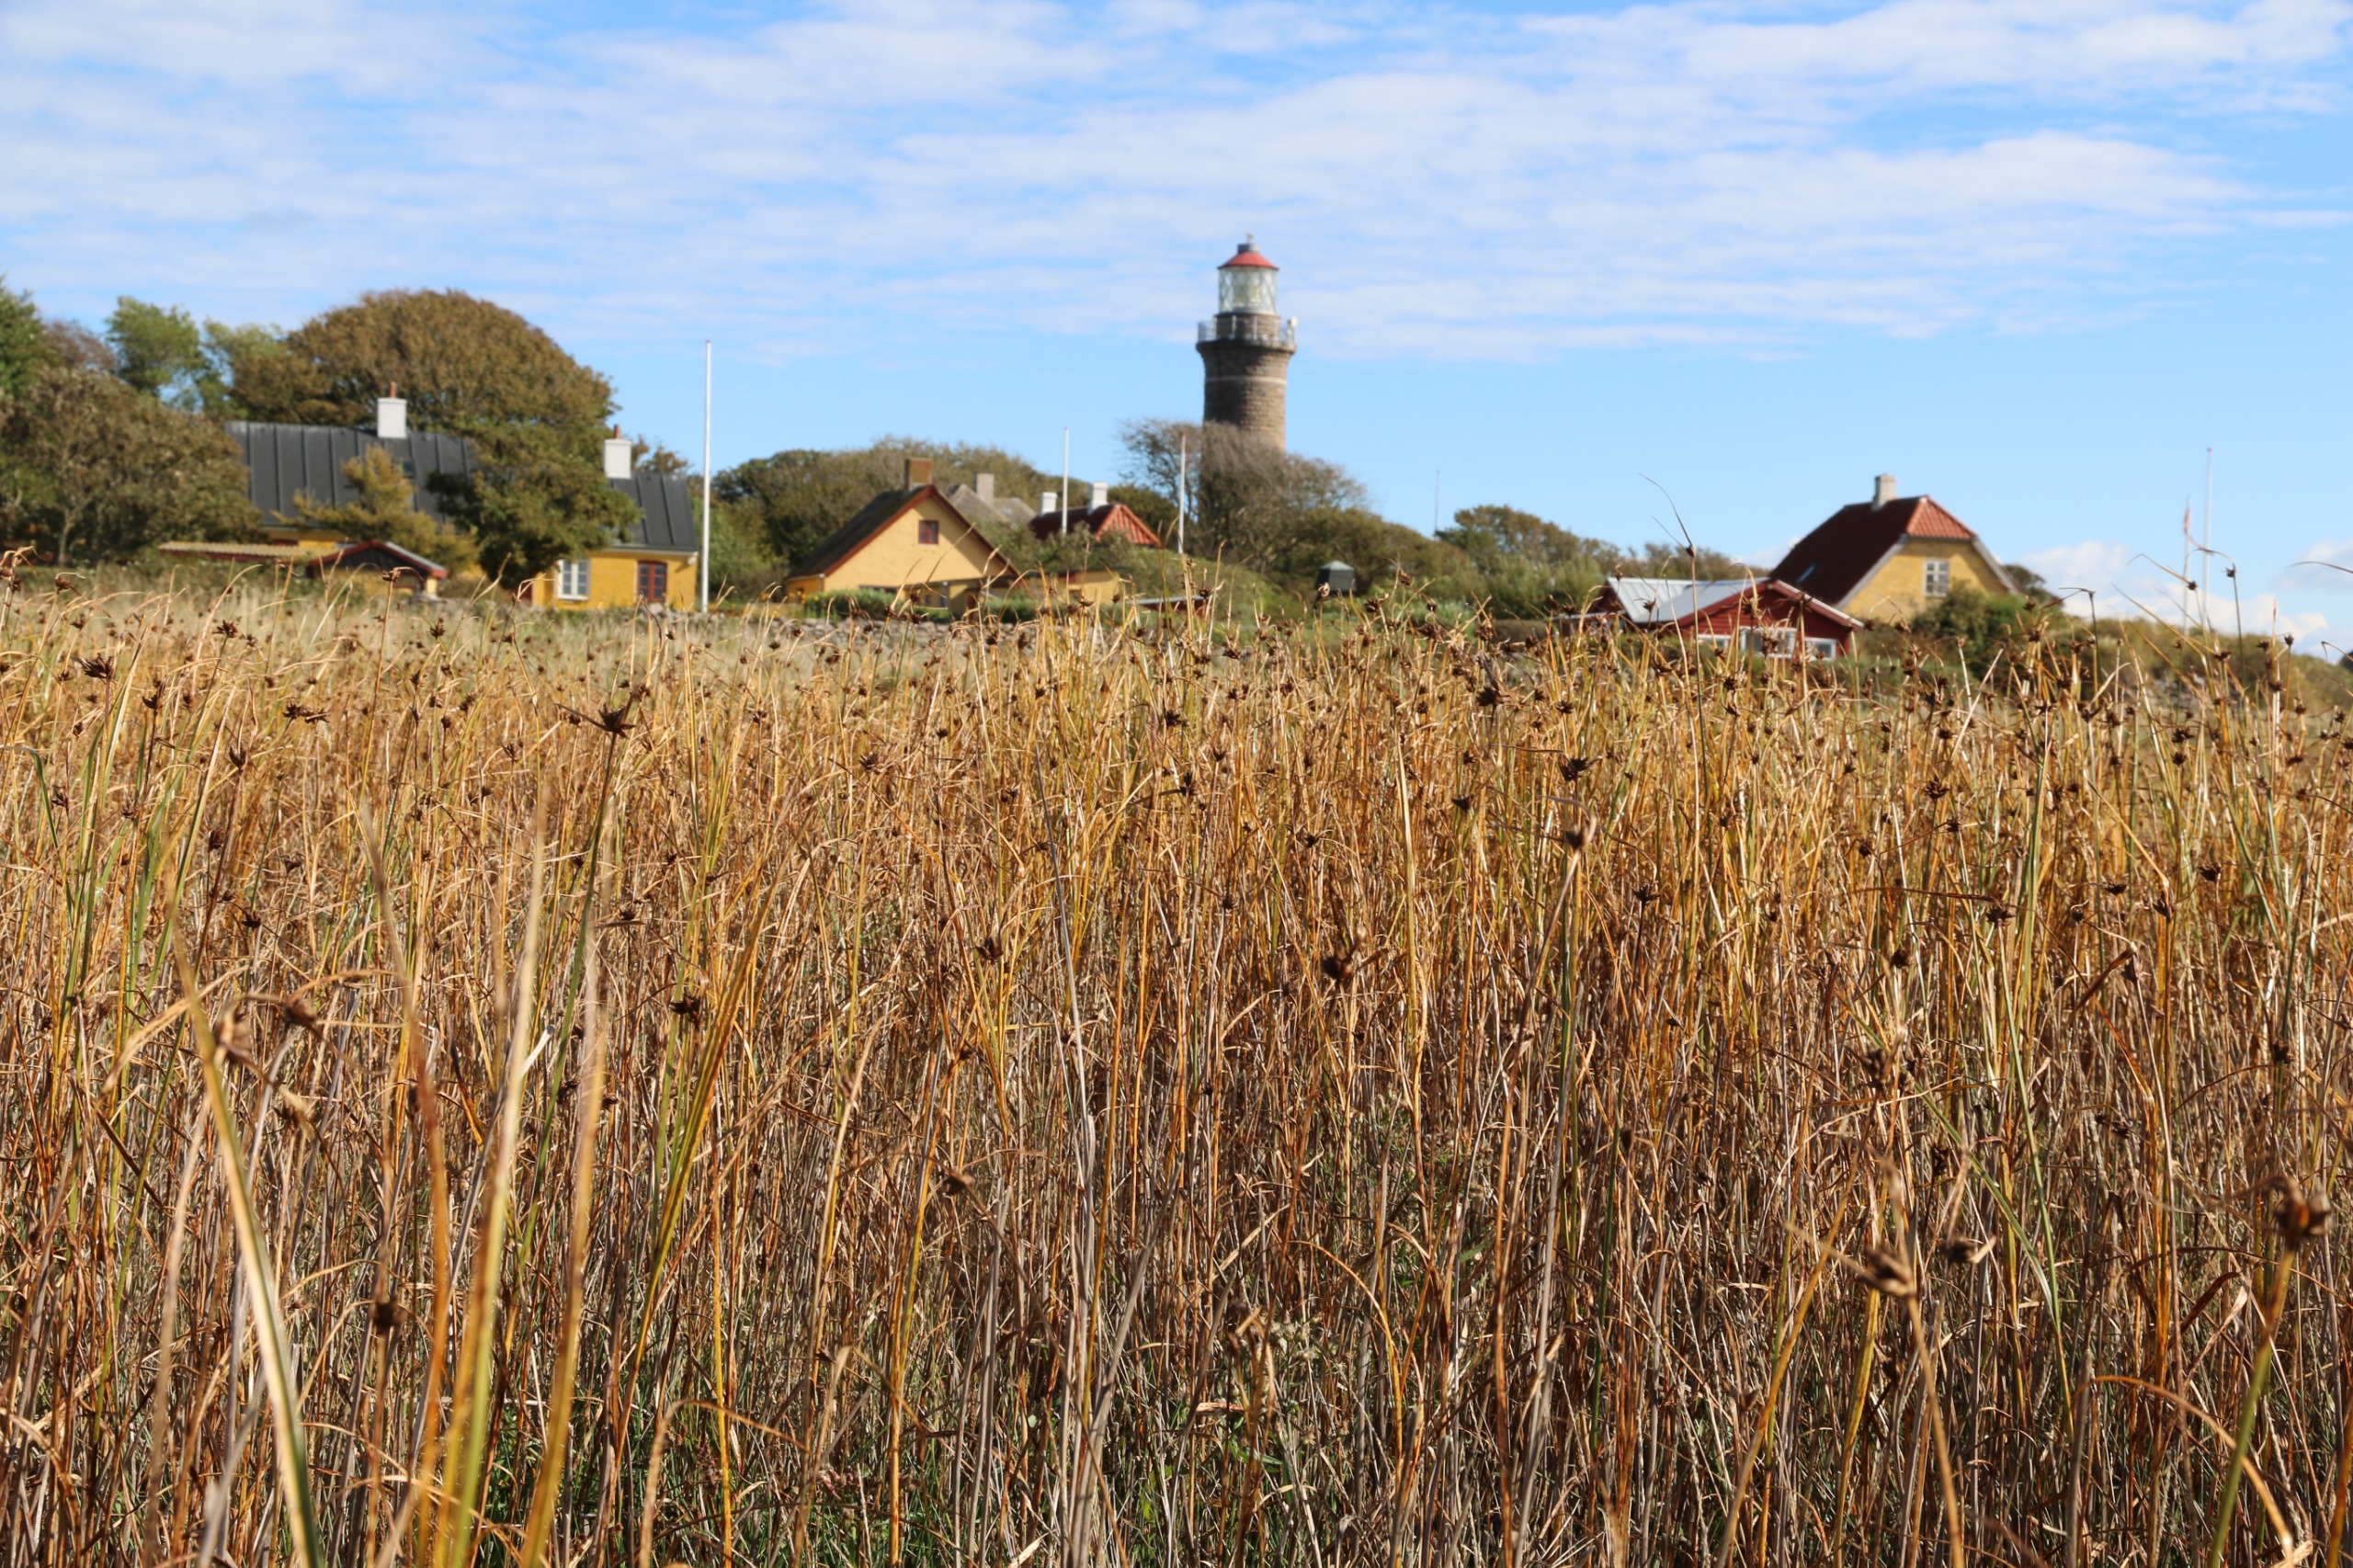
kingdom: Plantae
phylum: Tracheophyta
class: Liliopsida
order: Poales
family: Cyperaceae
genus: Bolboschoenus
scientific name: Bolboschoenus maritimus
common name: Strand-kogleaks
